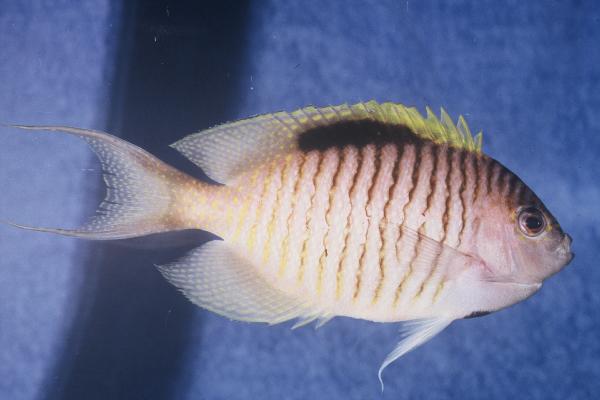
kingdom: Animalia
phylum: Chordata
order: Perciformes
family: Pomacanthidae
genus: Genicanthus
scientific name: Genicanthus caudovittatus
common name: Lyretail angelfish
